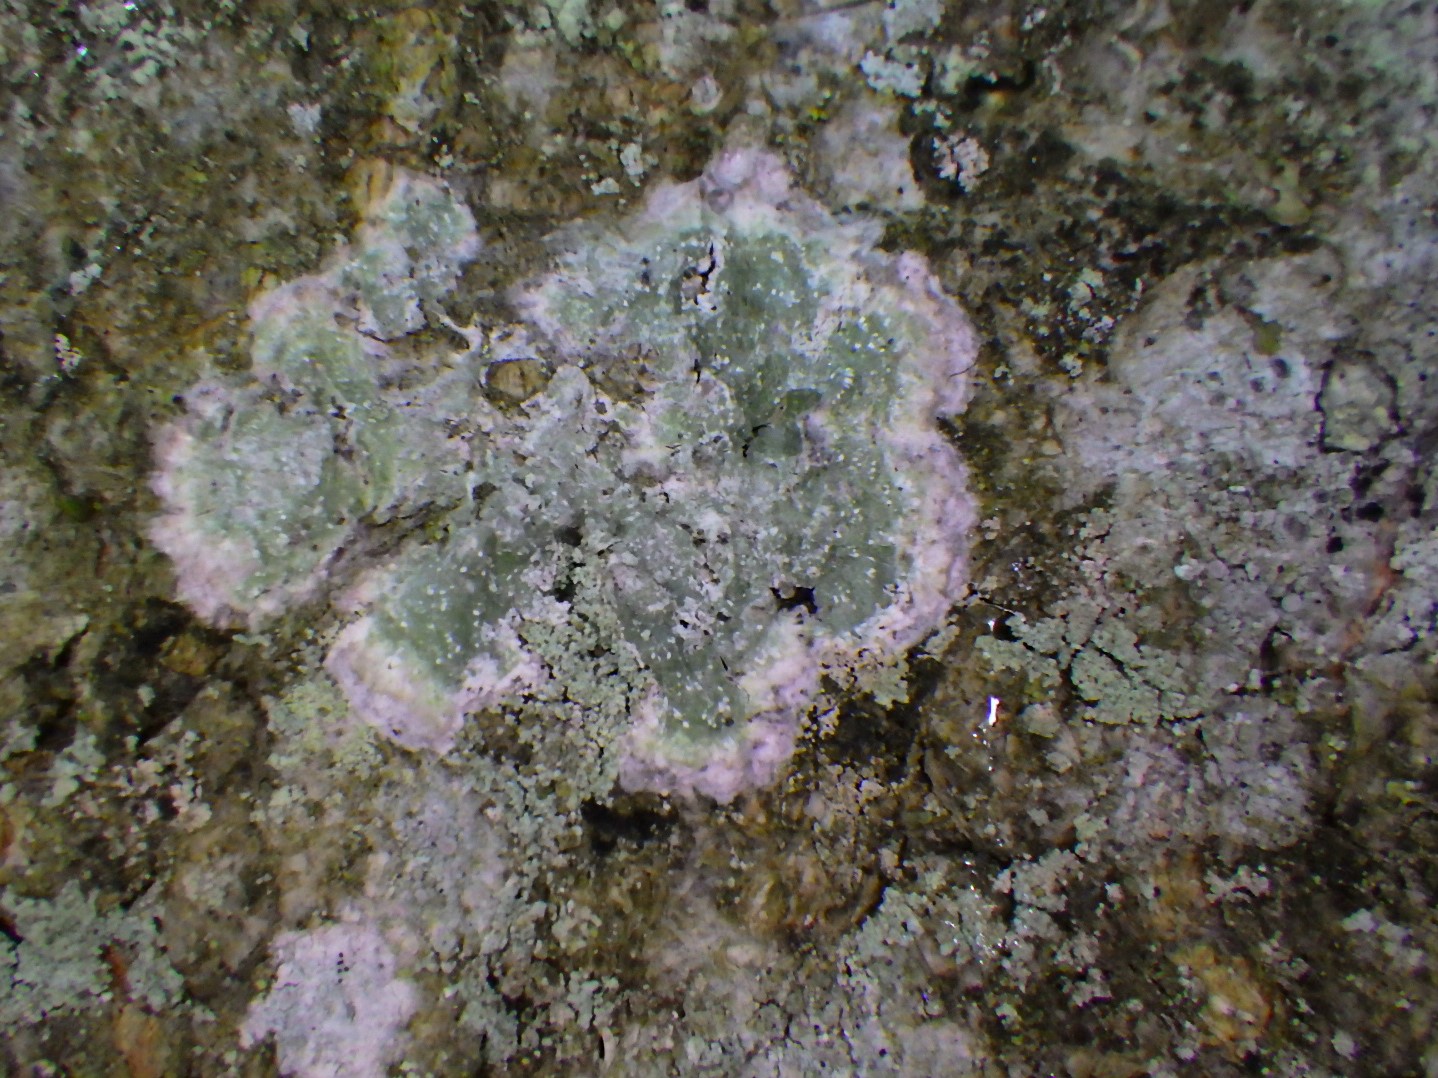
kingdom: Fungi
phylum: Ascomycota
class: Lecanoromycetes
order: Pertusariales
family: Pertusariaceae
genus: Pertusaria
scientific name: Pertusaria
